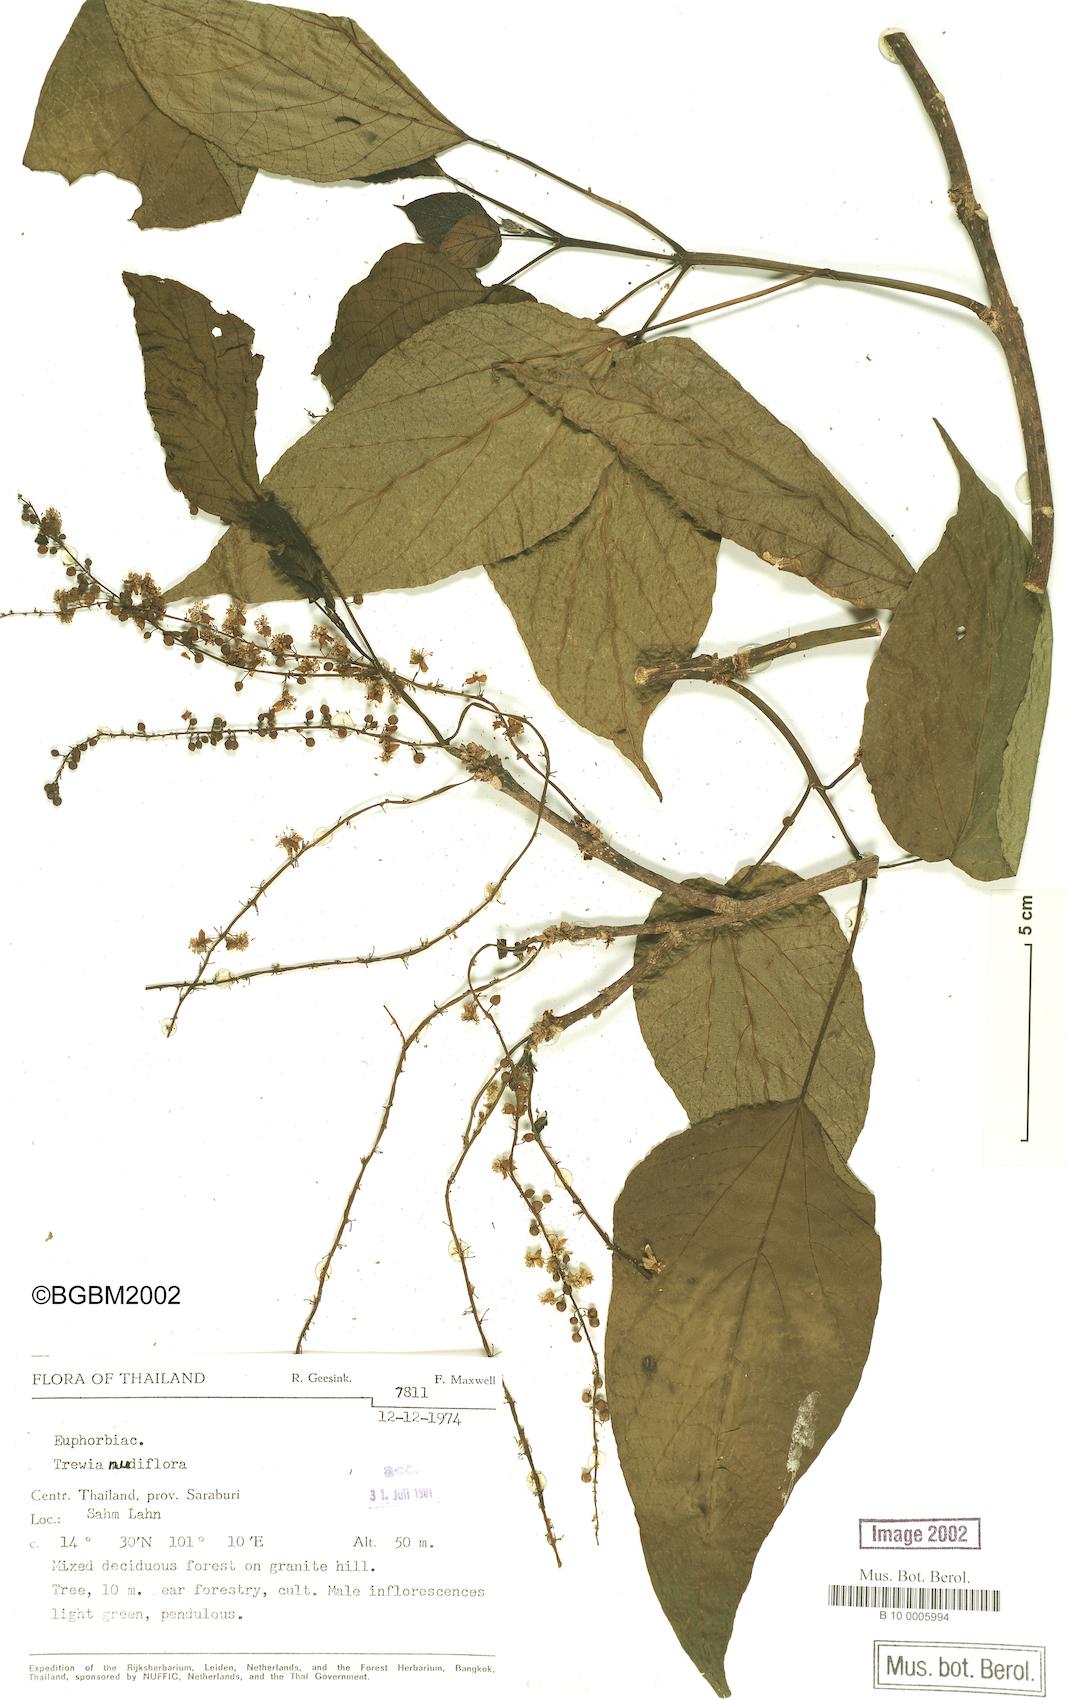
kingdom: Plantae
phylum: Tracheophyta
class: Magnoliopsida
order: Malpighiales
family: Euphorbiaceae
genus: Trewia
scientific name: Trewia nudiflora
